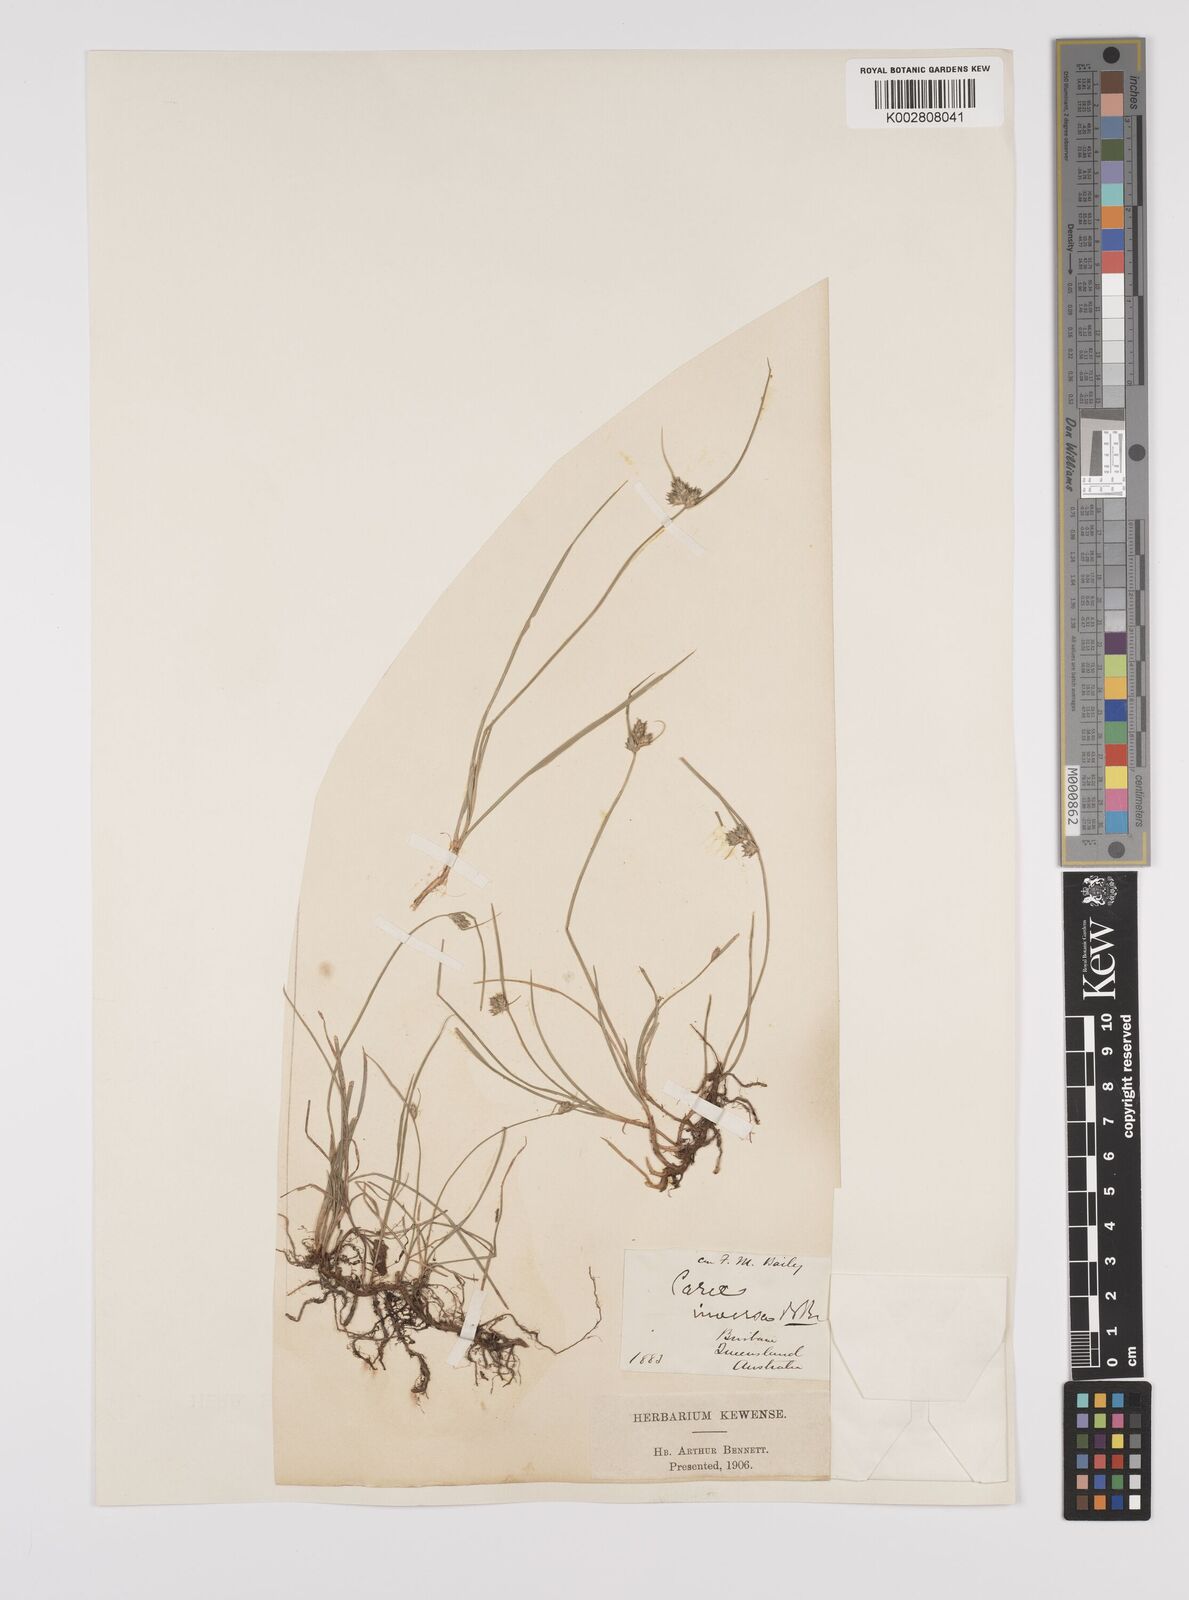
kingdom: Plantae
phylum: Tracheophyta
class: Liliopsida
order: Poales
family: Cyperaceae
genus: Carex
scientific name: Carex inversa
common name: Knob sedge
